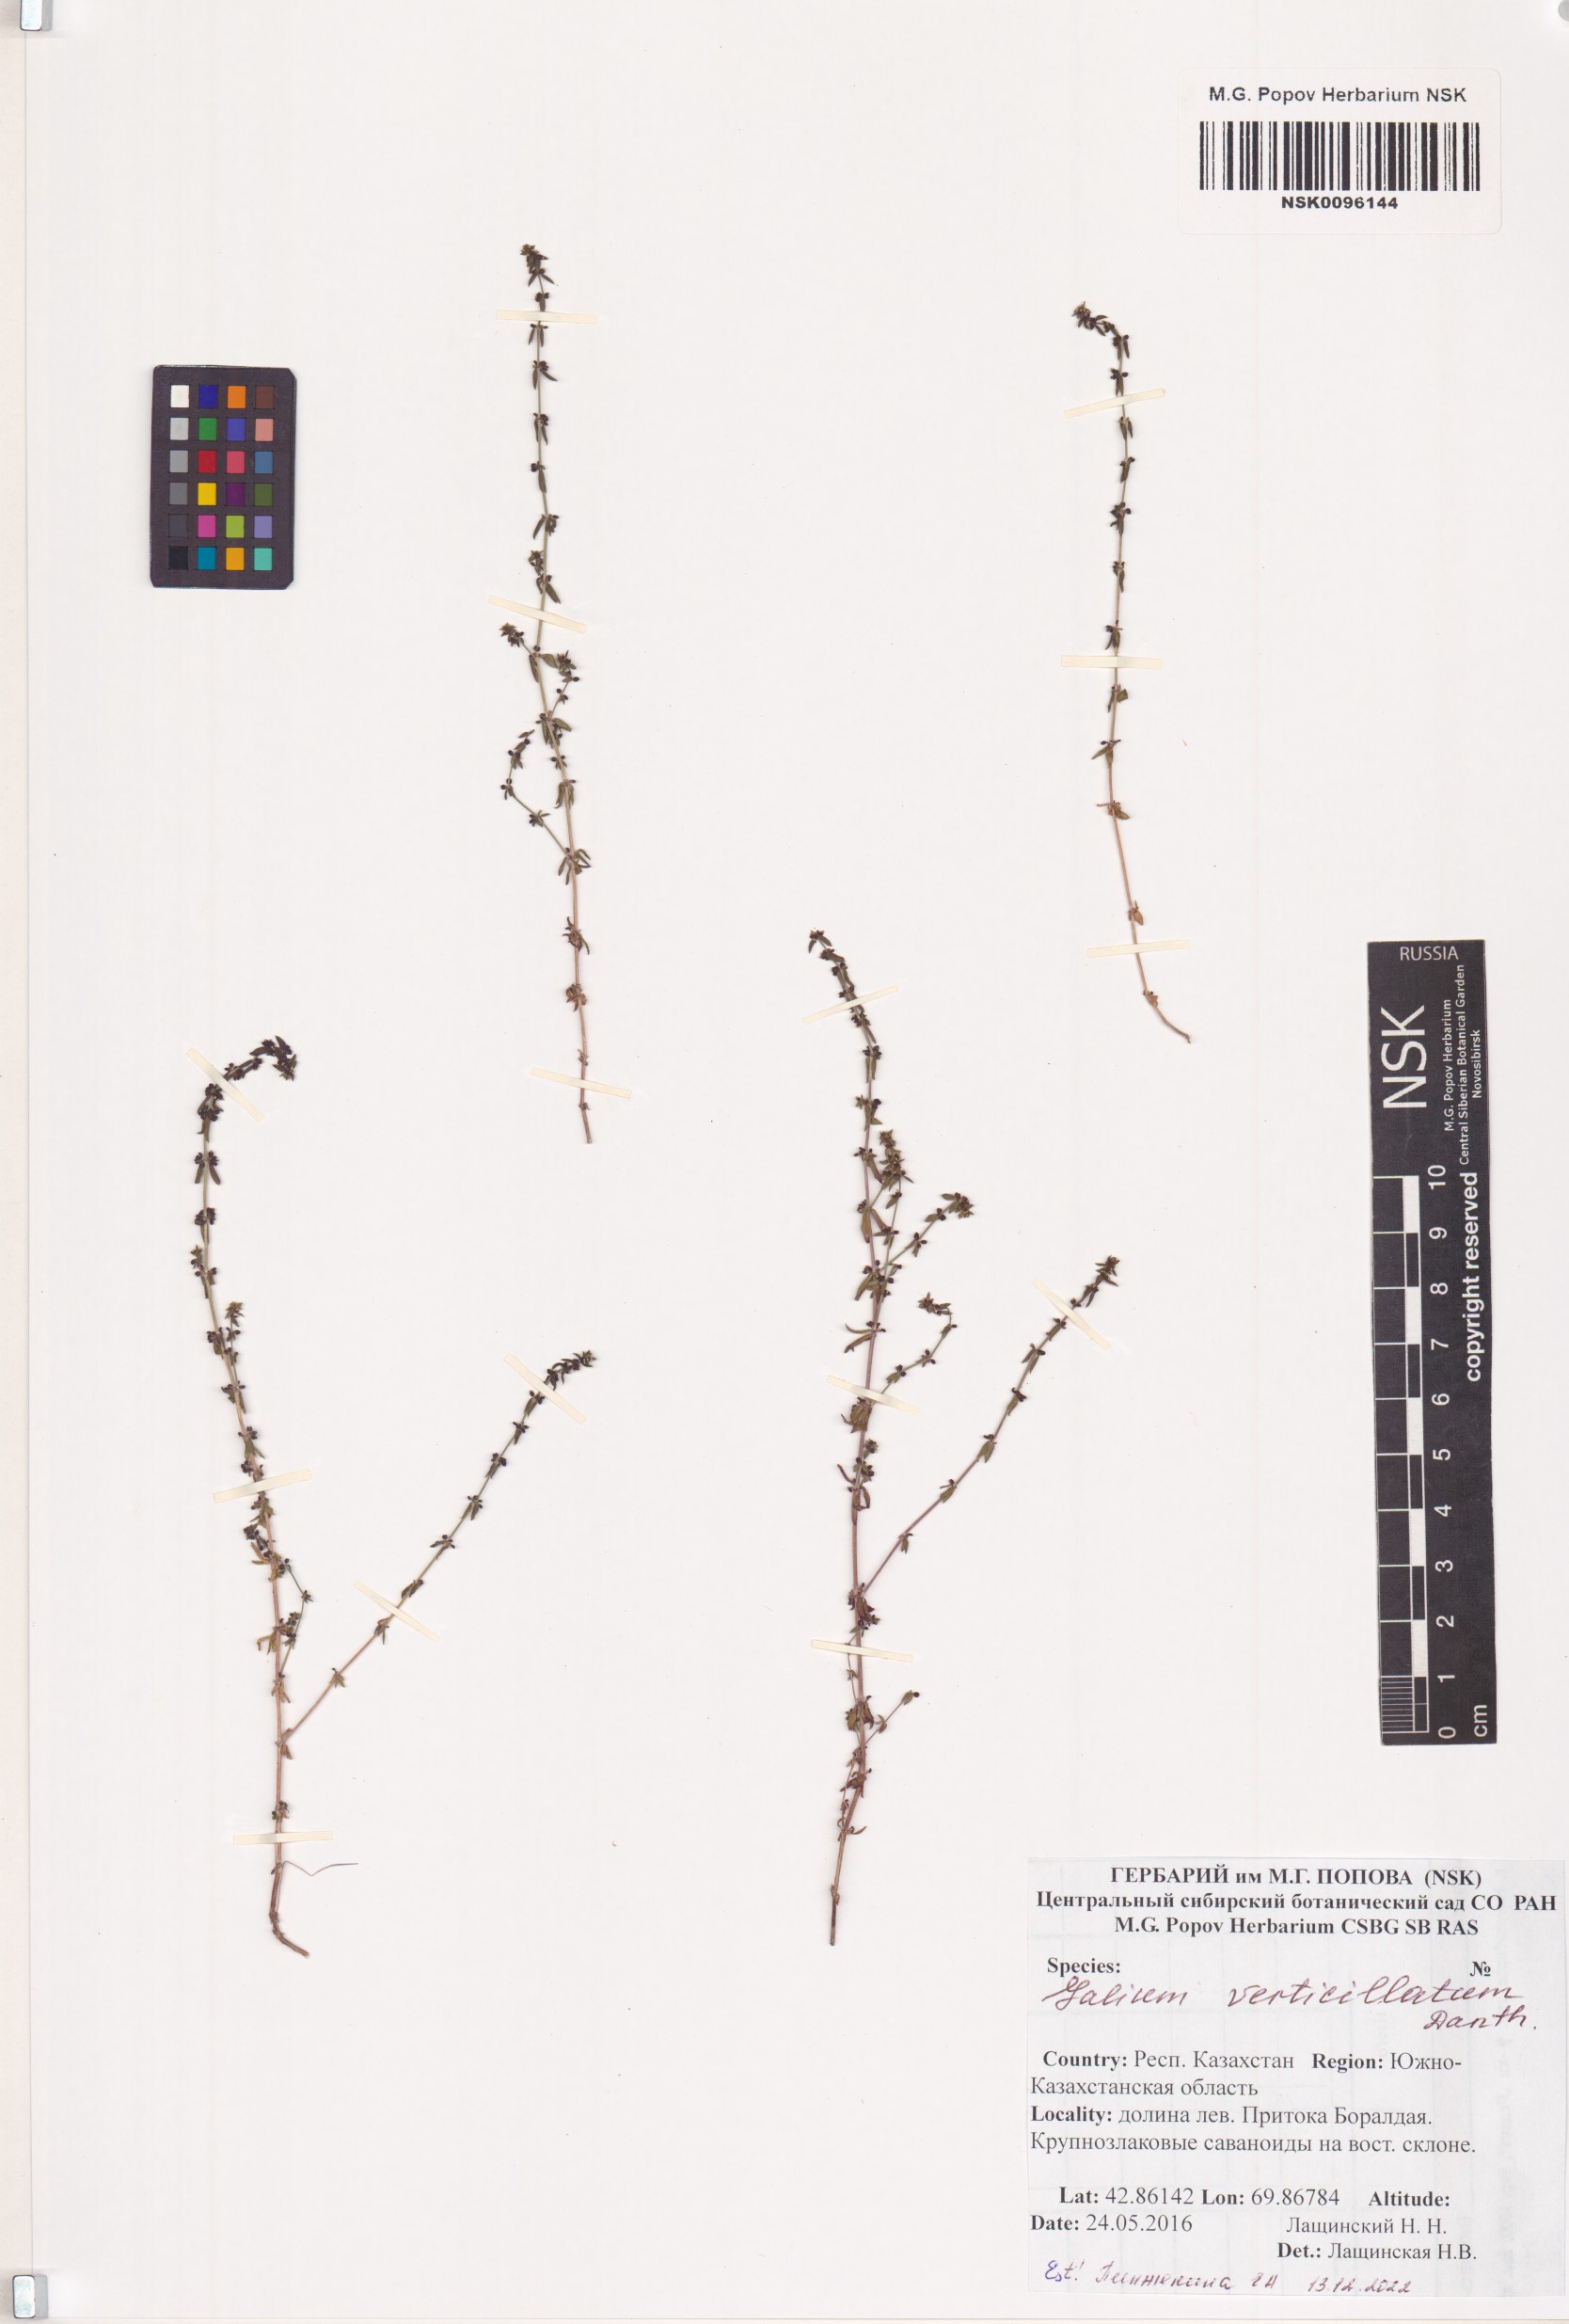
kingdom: Plantae
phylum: Tracheophyta
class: Magnoliopsida
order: Gentianales
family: Rubiaceae
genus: Galium
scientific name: Galium verticillatum
